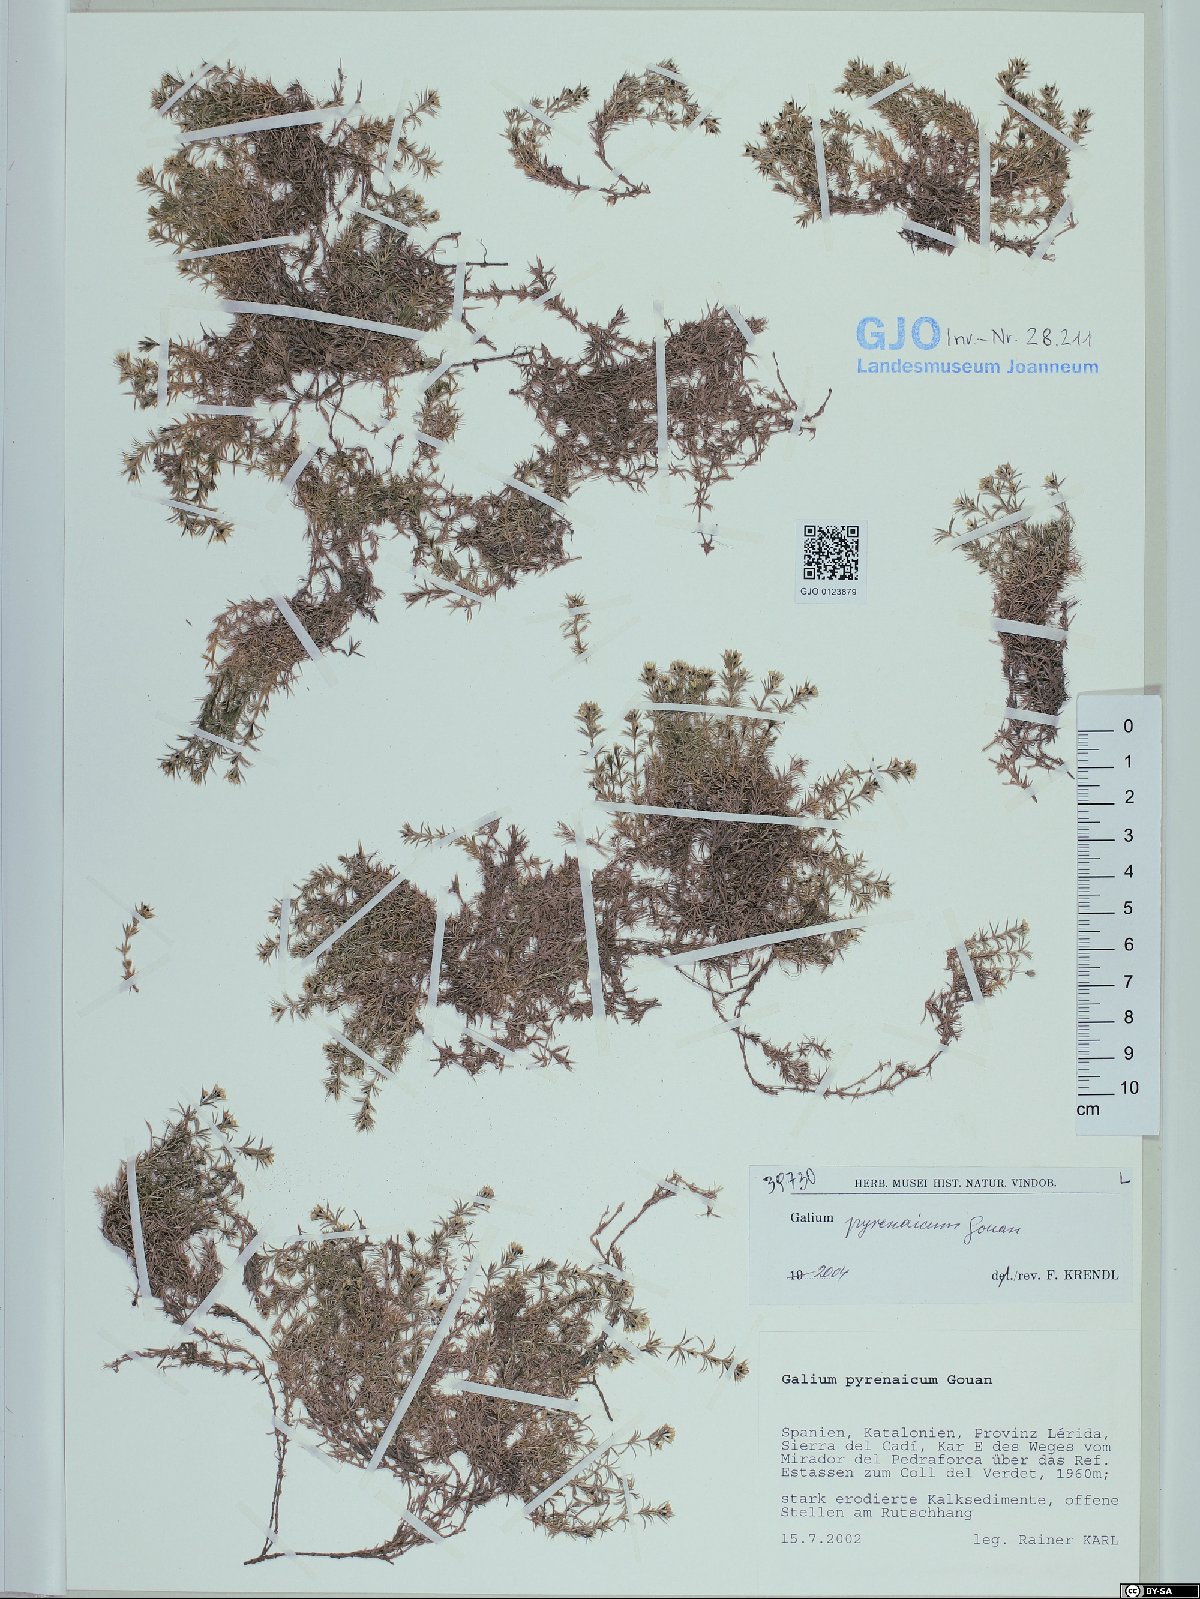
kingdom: Plantae
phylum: Tracheophyta
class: Magnoliopsida
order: Gentianales
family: Rubiaceae
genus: Galium
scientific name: Galium pyrenaicum
